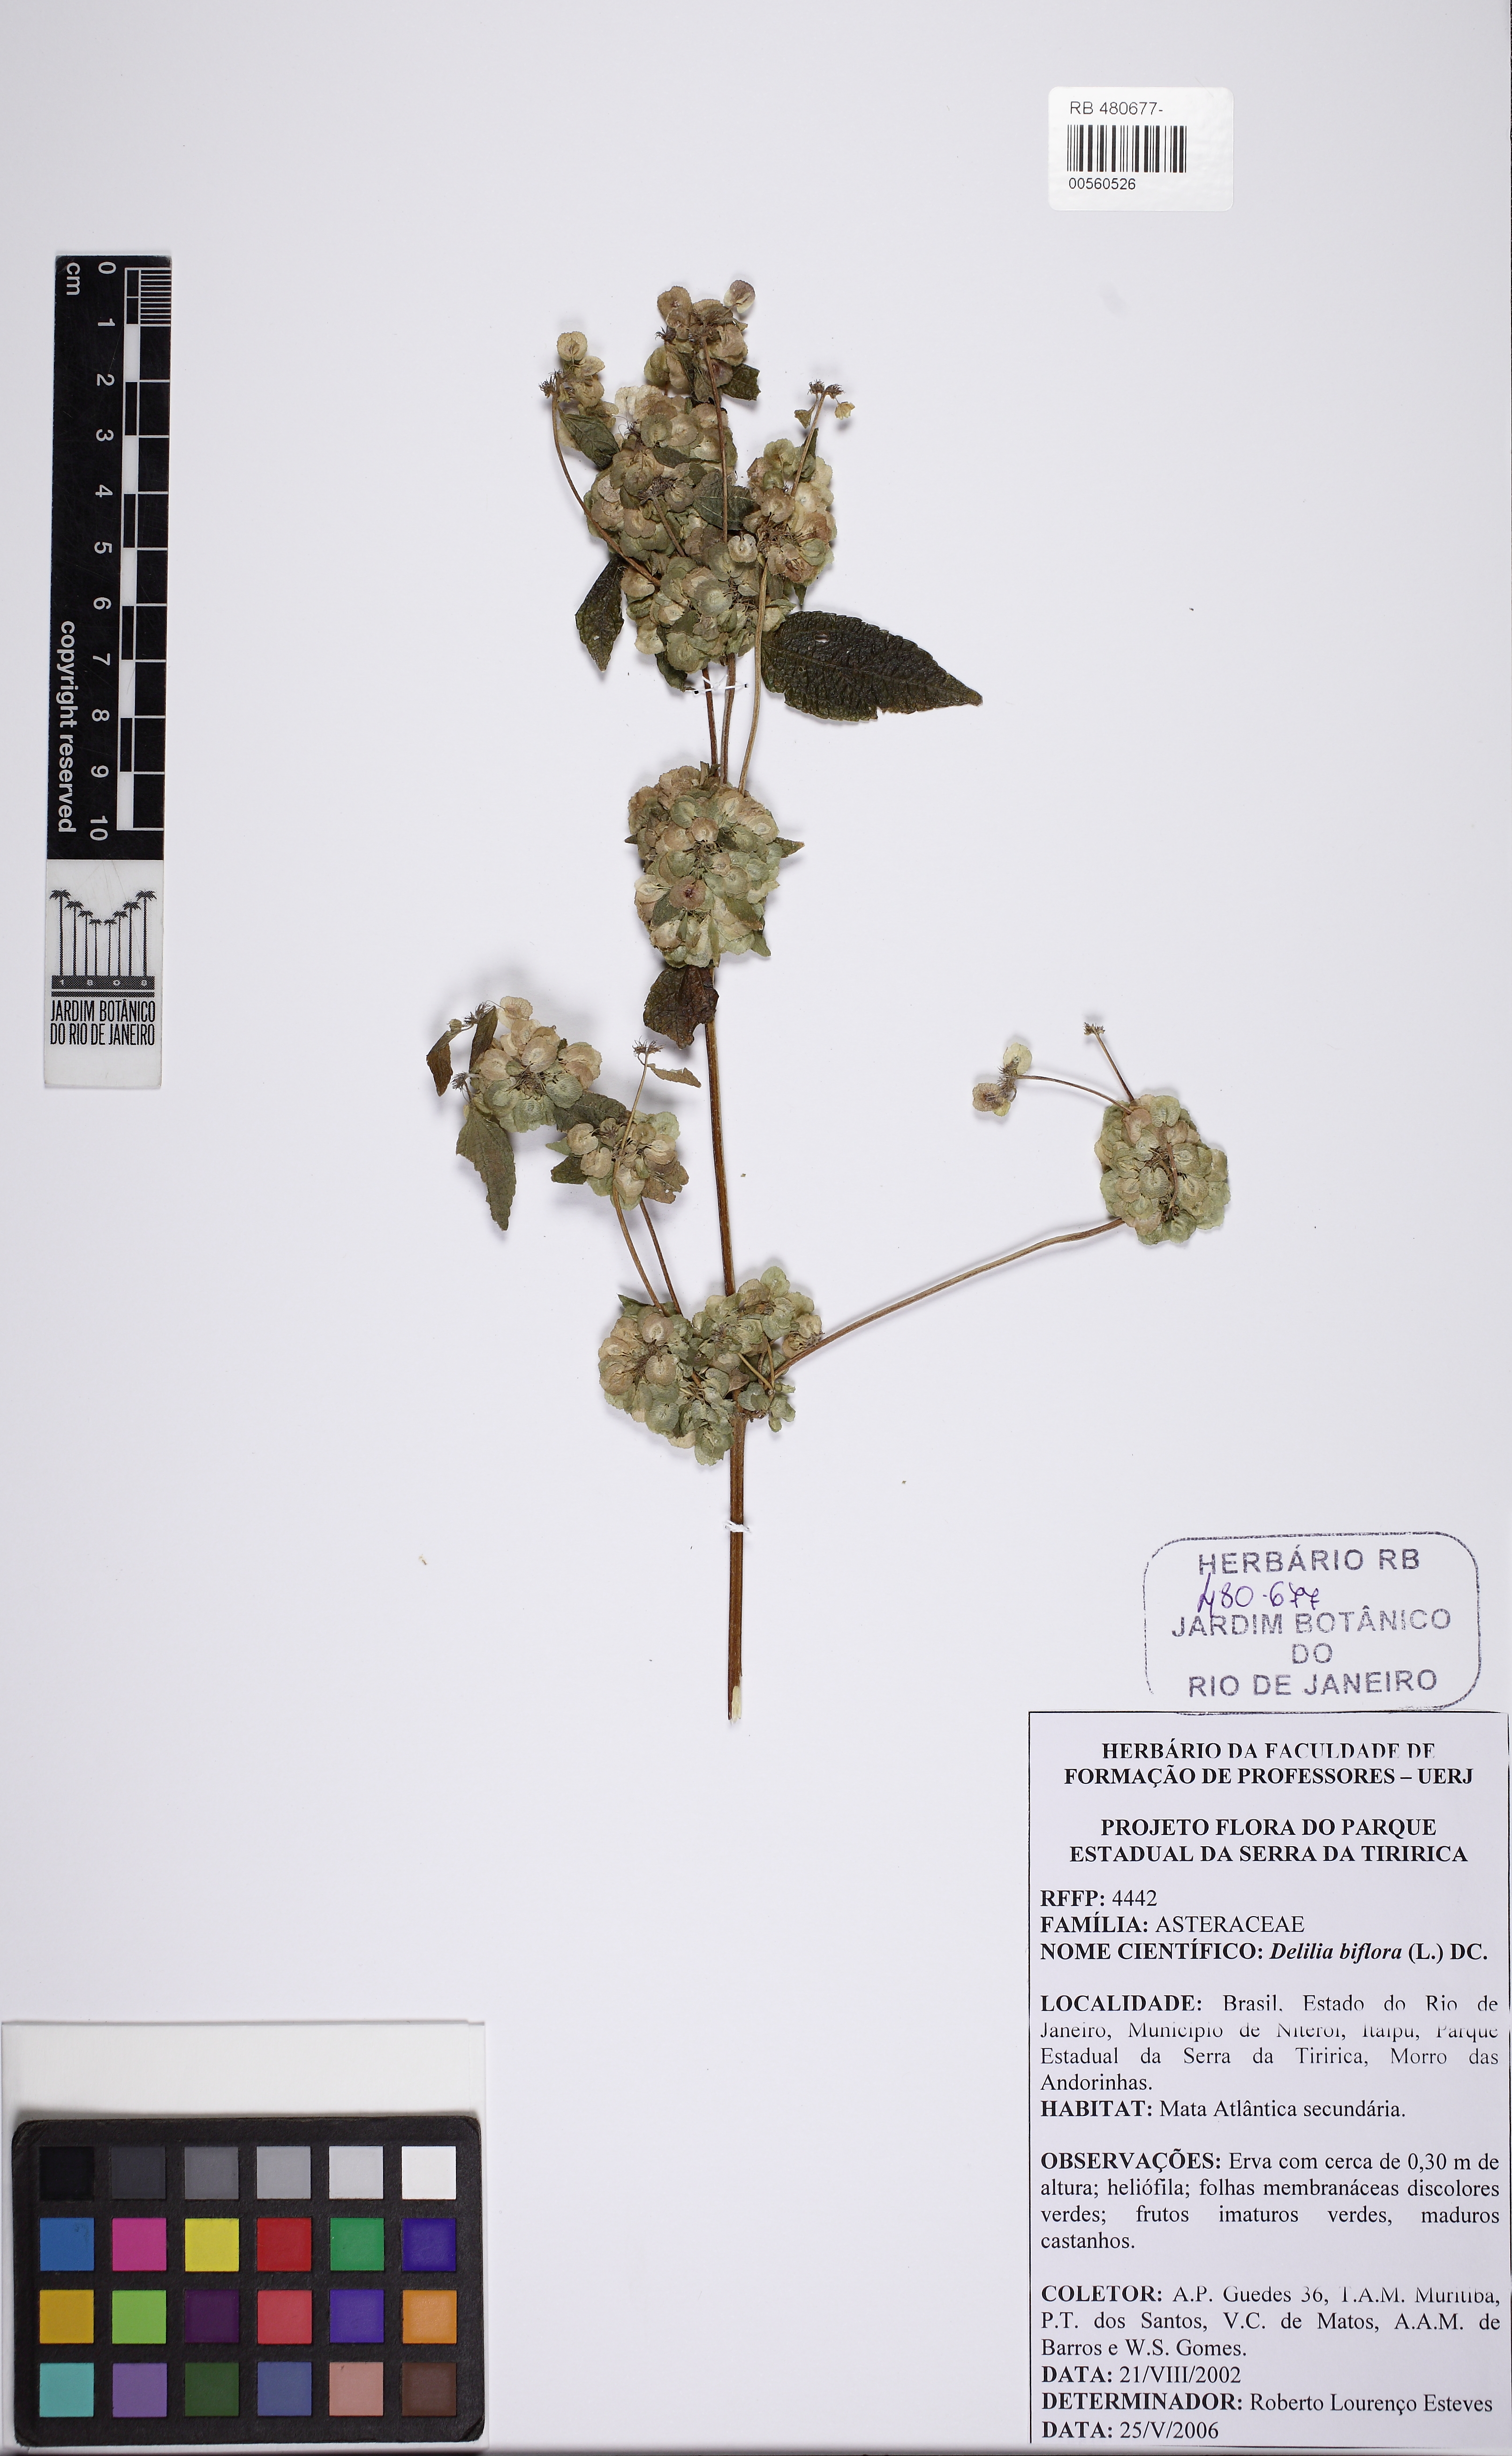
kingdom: Plantae
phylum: Tracheophyta
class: Magnoliopsida
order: Asterales
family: Asteraceae
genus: Delilia
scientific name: Delilia biflora
